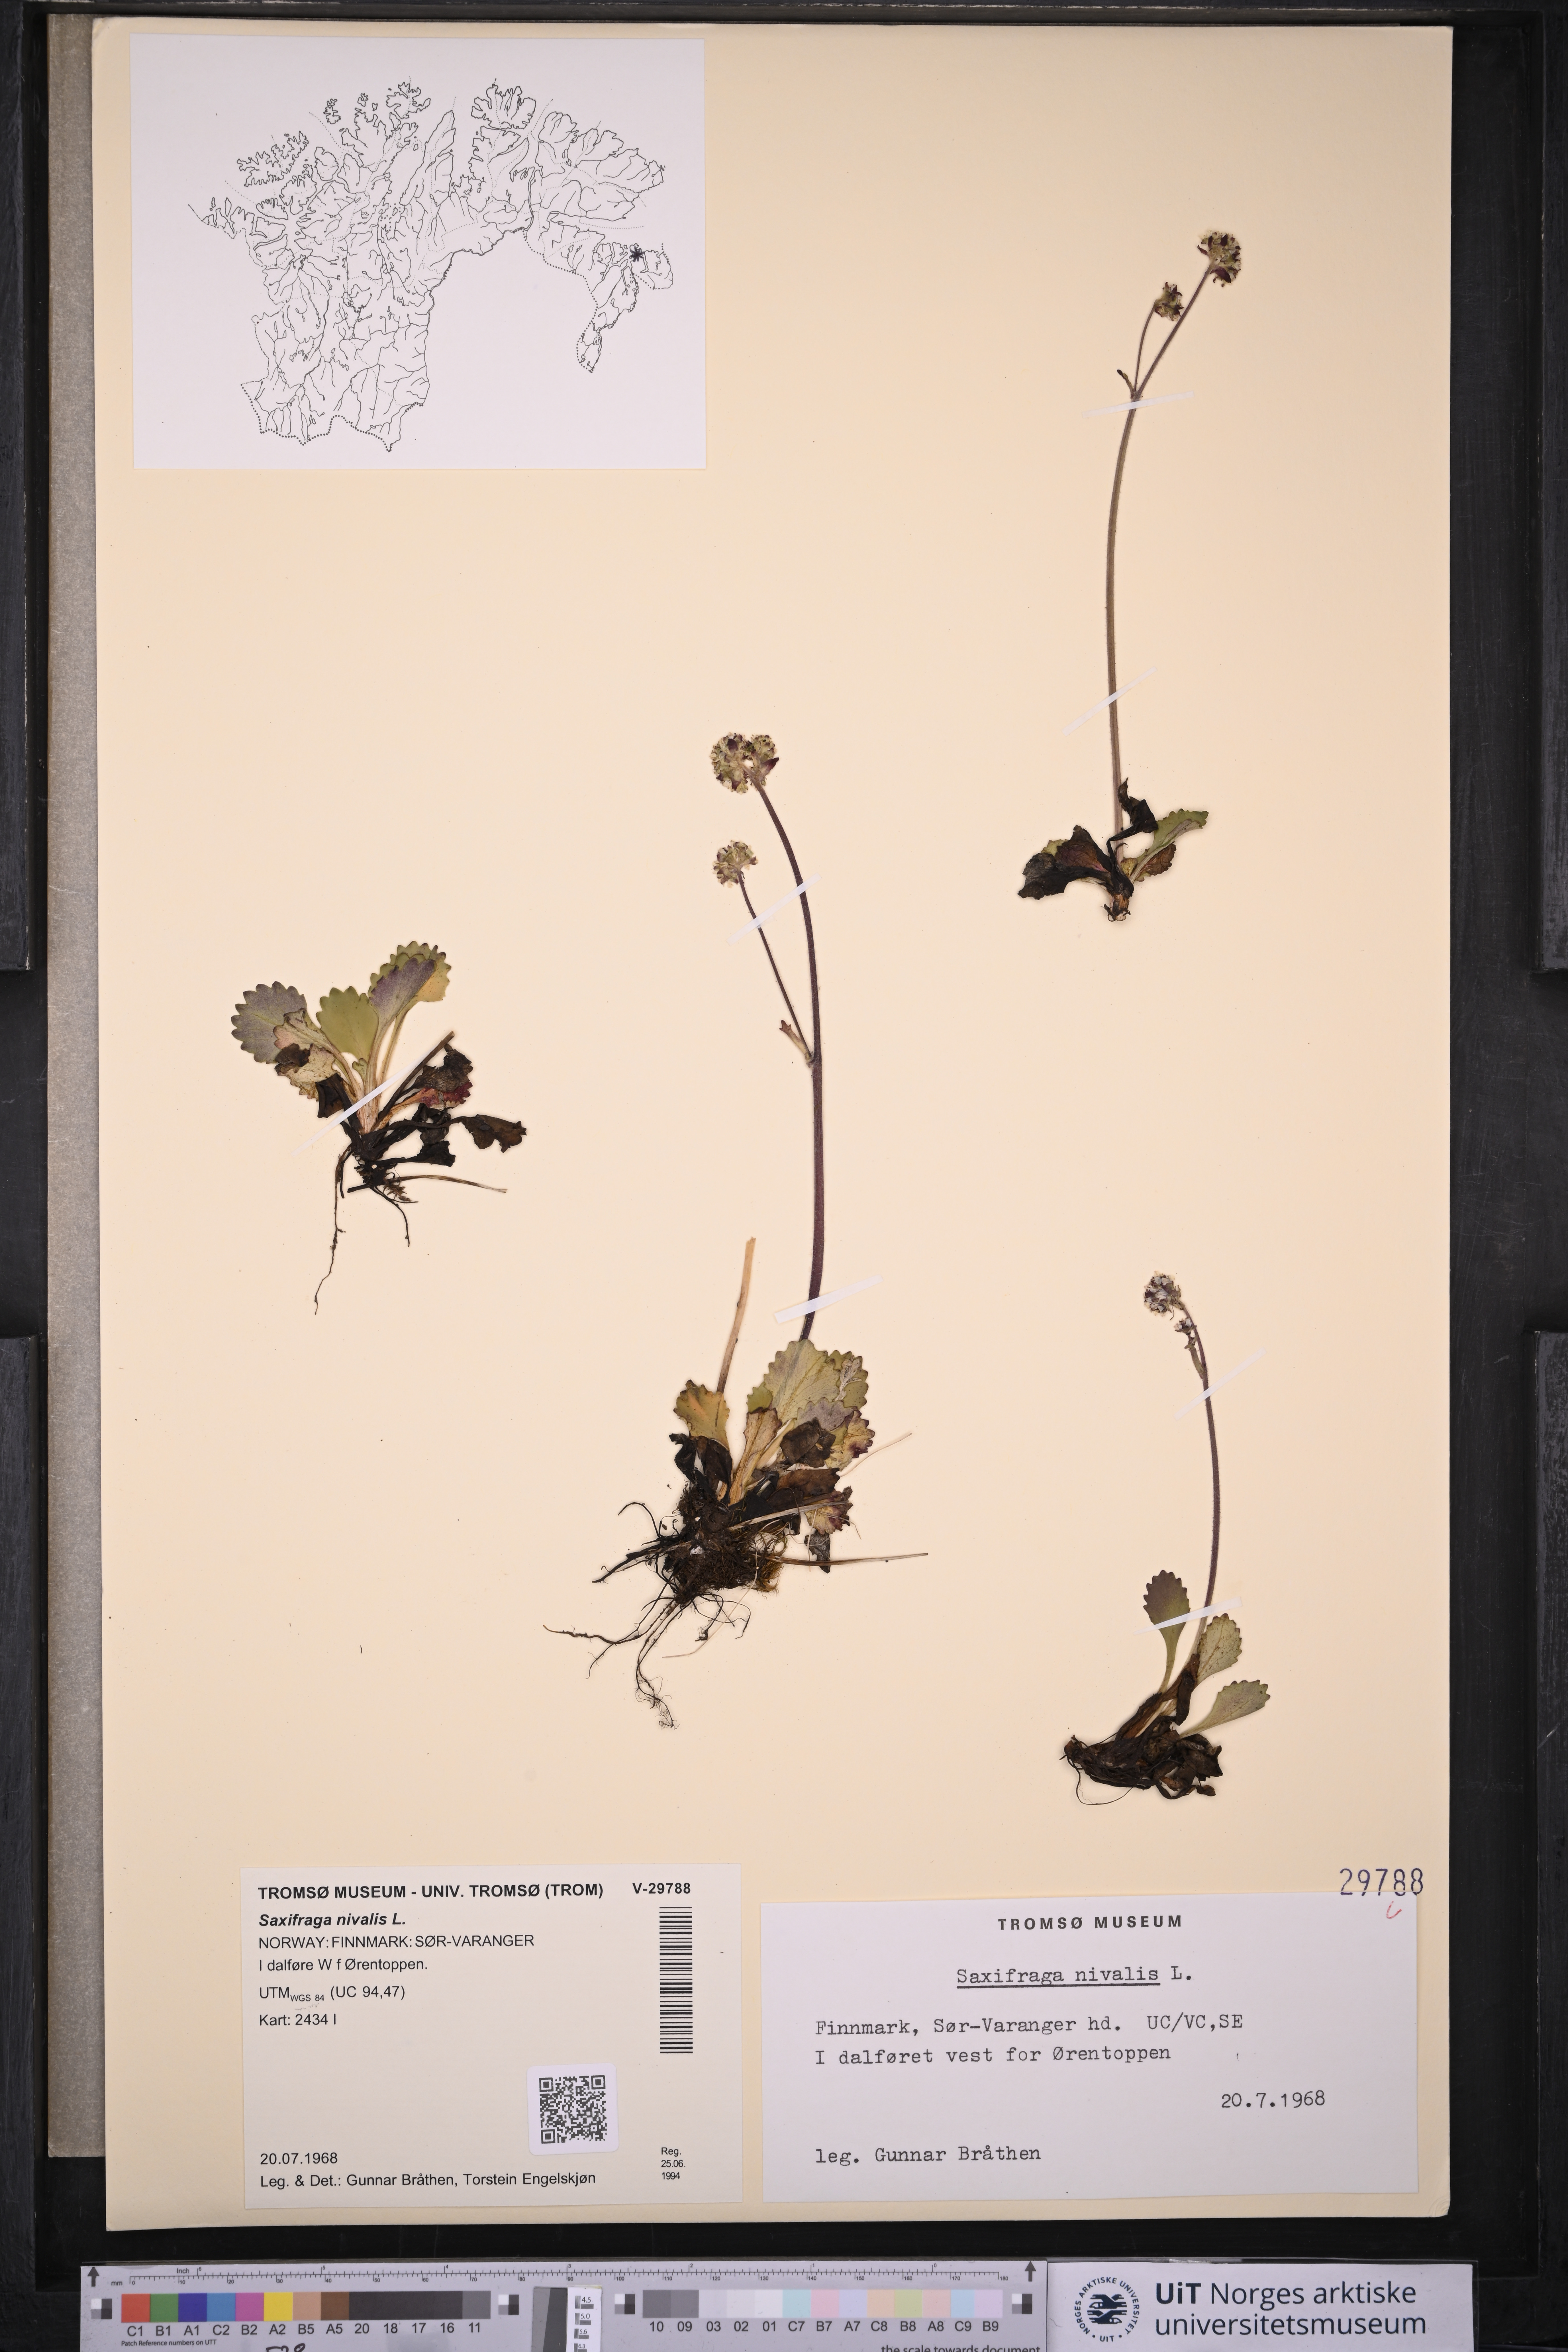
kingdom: Plantae
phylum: Tracheophyta
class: Magnoliopsida
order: Saxifragales
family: Saxifragaceae
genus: Micranthes
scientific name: Micranthes nivalis
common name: Alpine saxifrage
